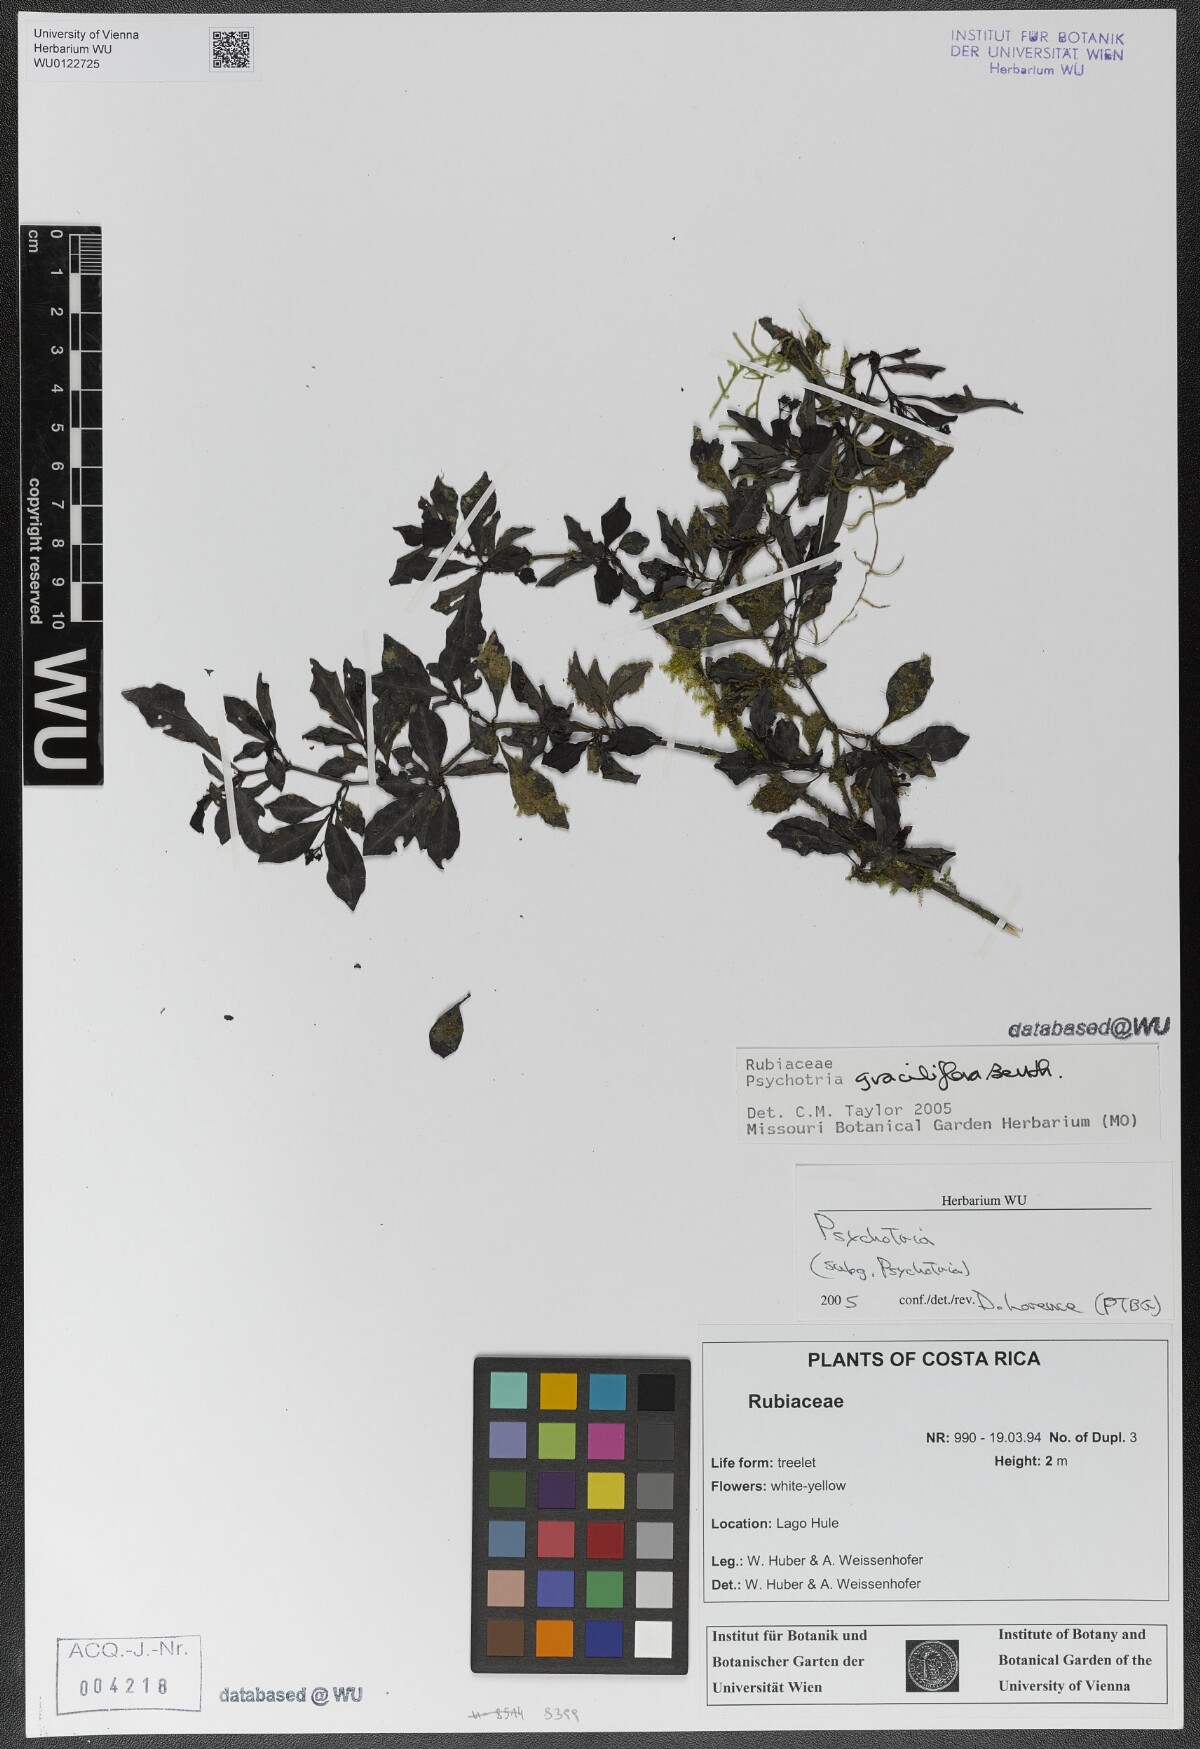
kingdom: Plantae
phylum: Tracheophyta
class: Magnoliopsida
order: Gentianales
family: Rubiaceae
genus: Psychotria
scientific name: Psychotria biaristata
